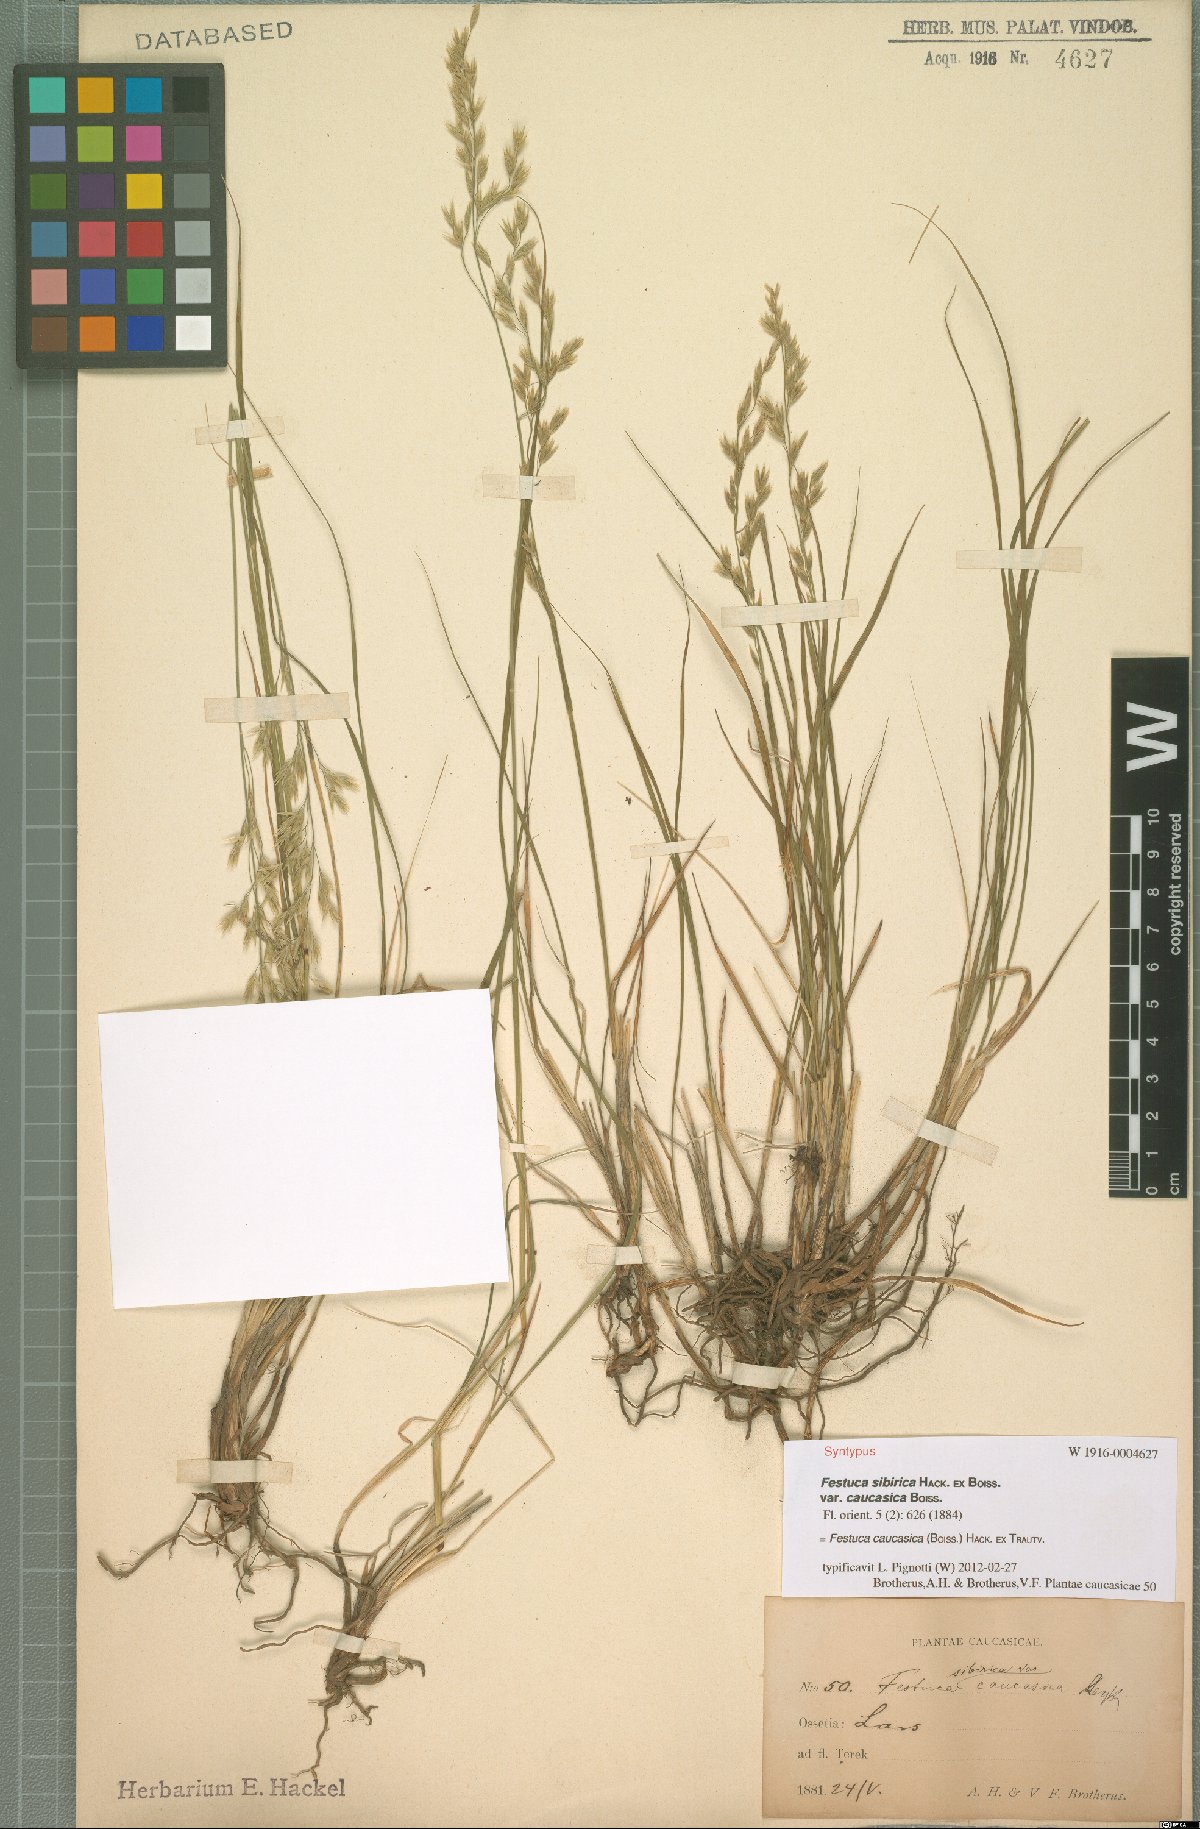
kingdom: Plantae
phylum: Tracheophyta
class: Liliopsida
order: Poales
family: Poaceae
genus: Festuca
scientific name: Festuca caucasica
